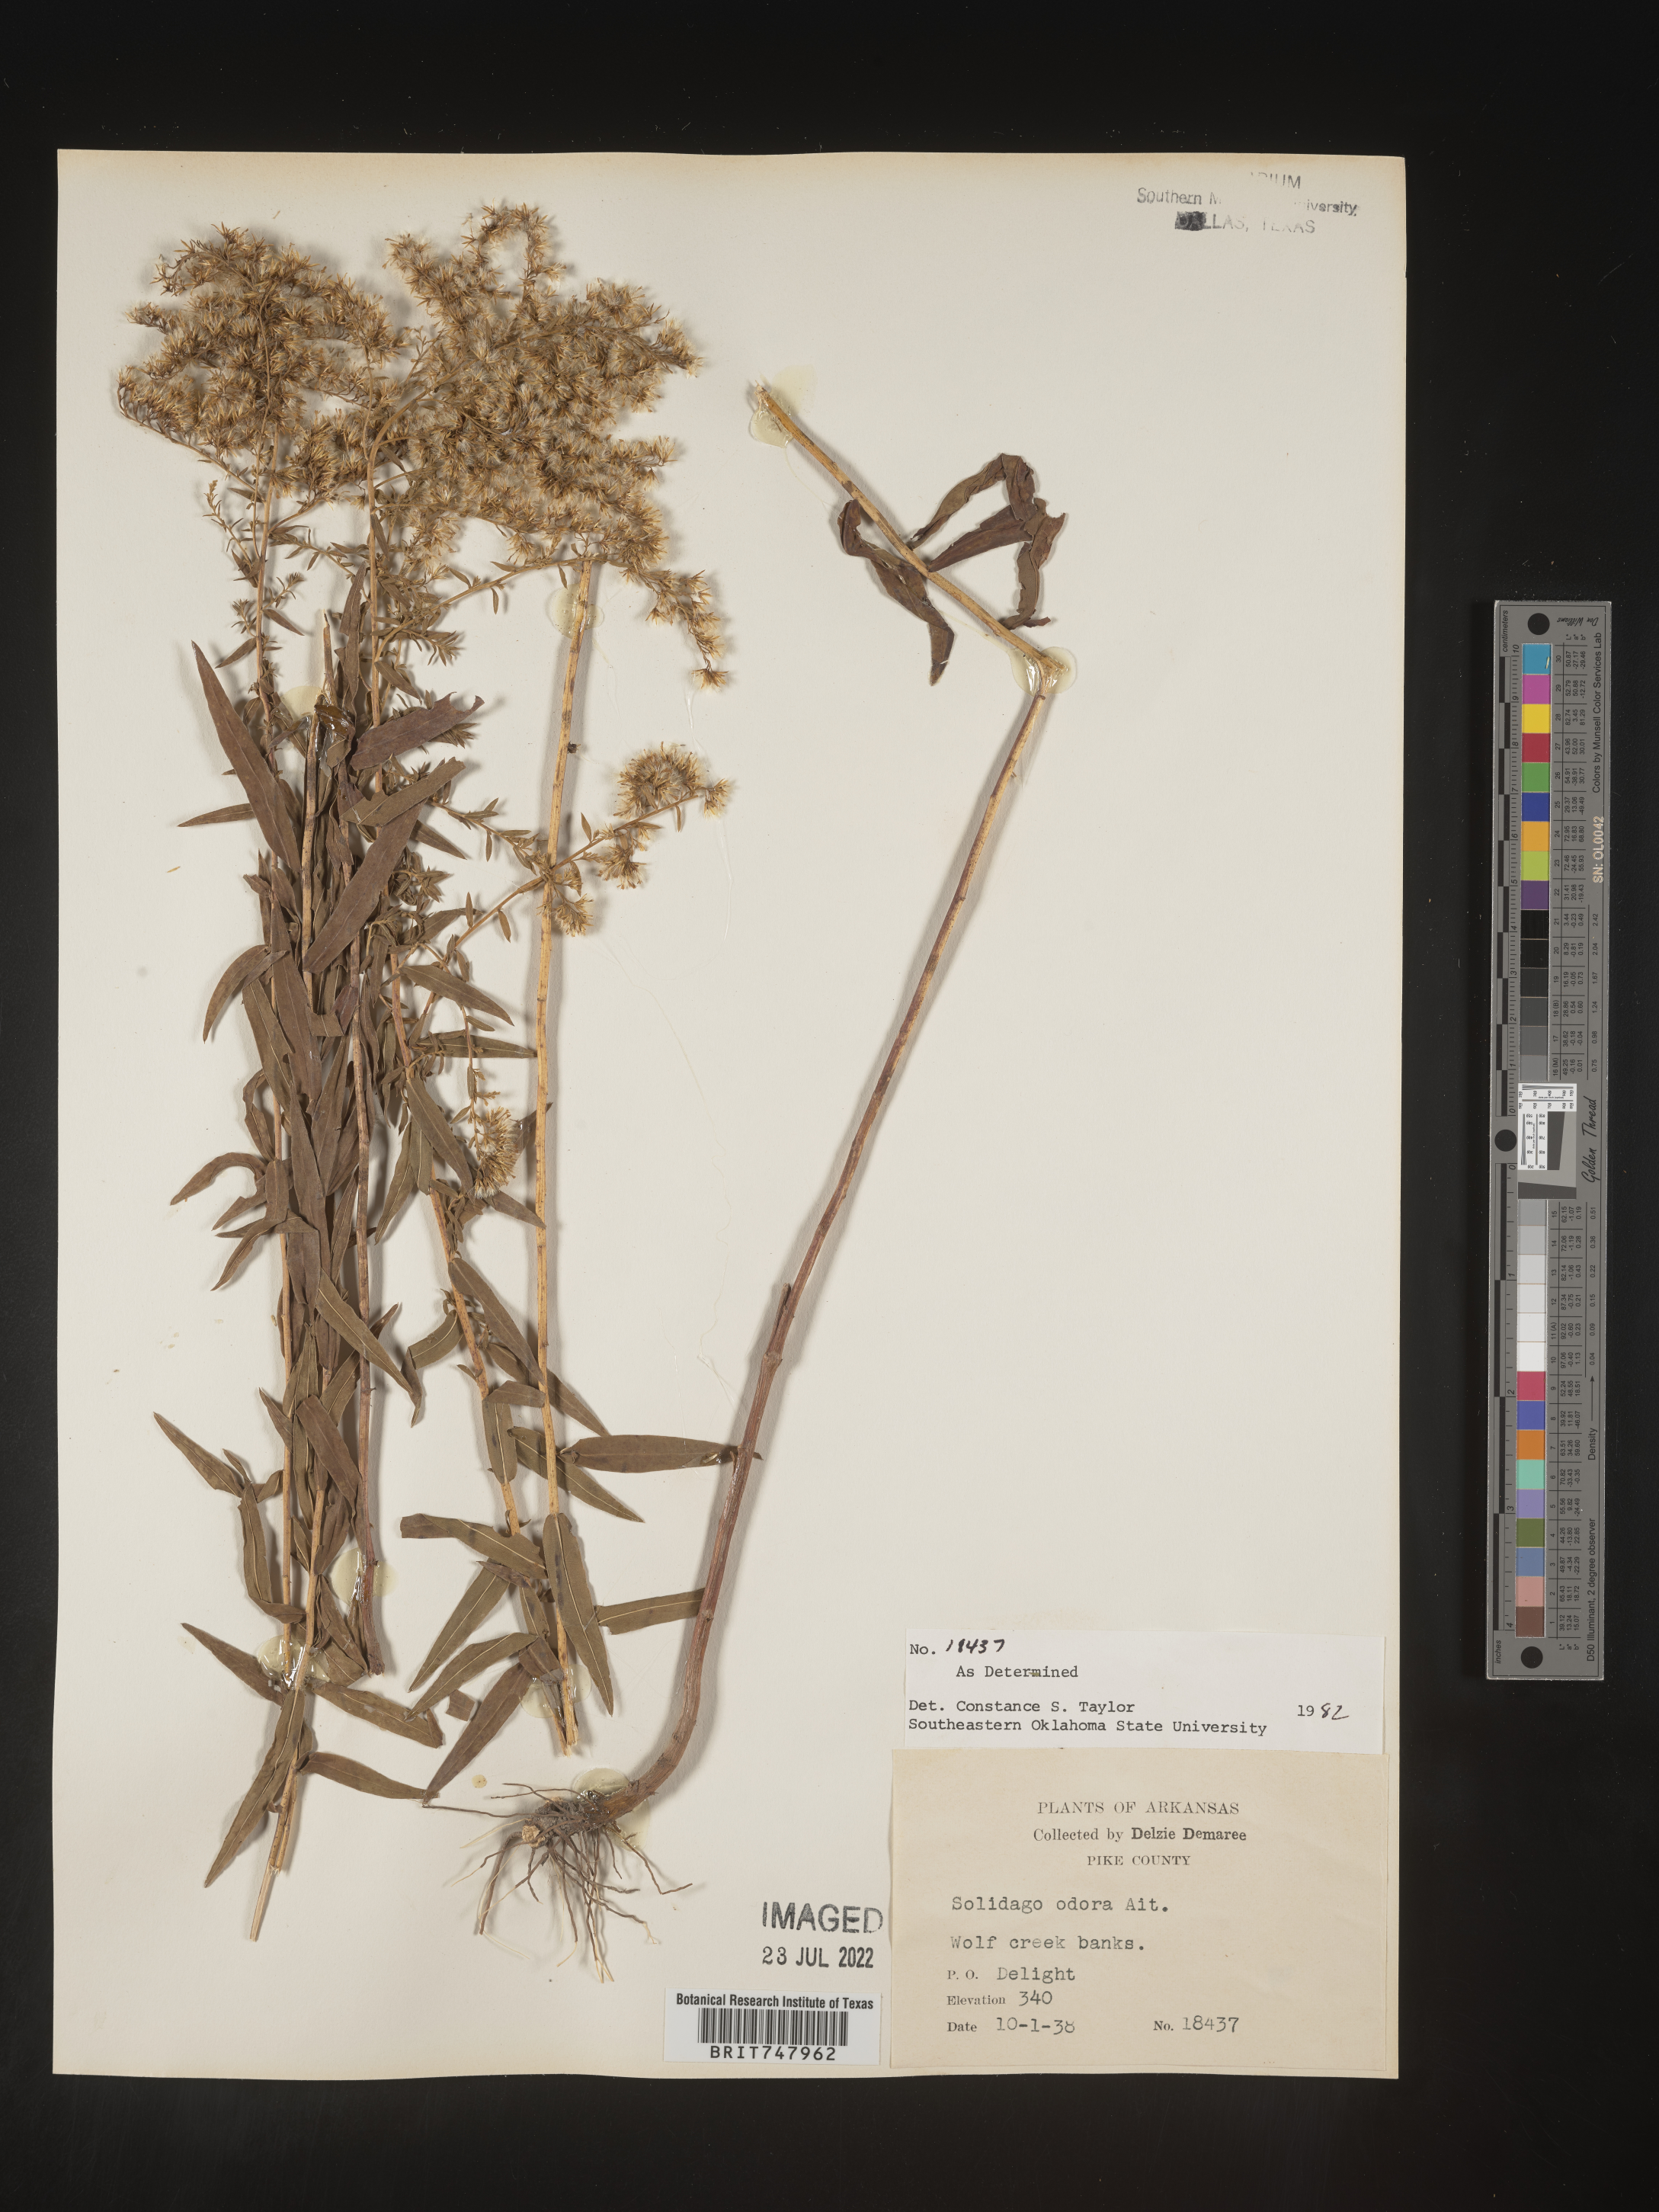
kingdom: Plantae
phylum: Tracheophyta
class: Magnoliopsida
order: Asterales
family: Asteraceae
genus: Solidago
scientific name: Solidago odora
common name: Anise-scented goldenrod
